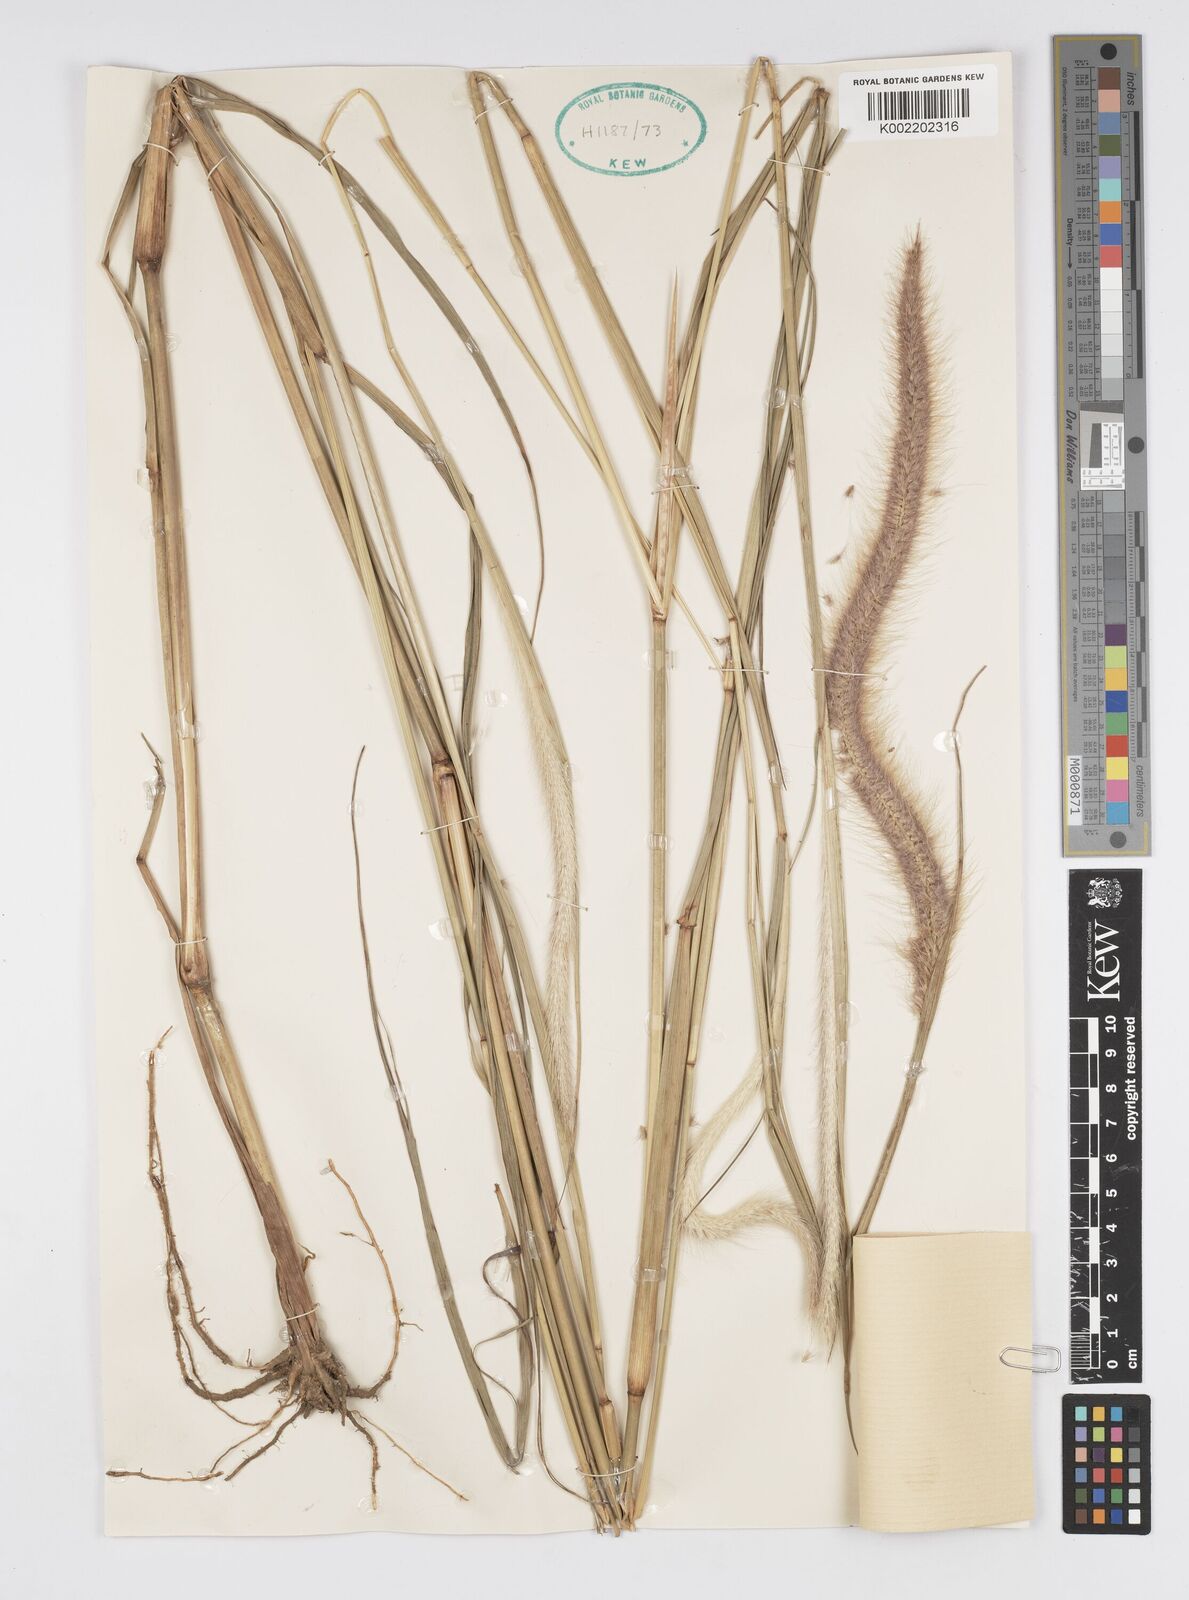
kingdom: Plantae
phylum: Tracheophyta
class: Liliopsida
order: Poales
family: Poaceae
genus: Setaria
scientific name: Setaria parviflora
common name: Knotroot bristle-grass
